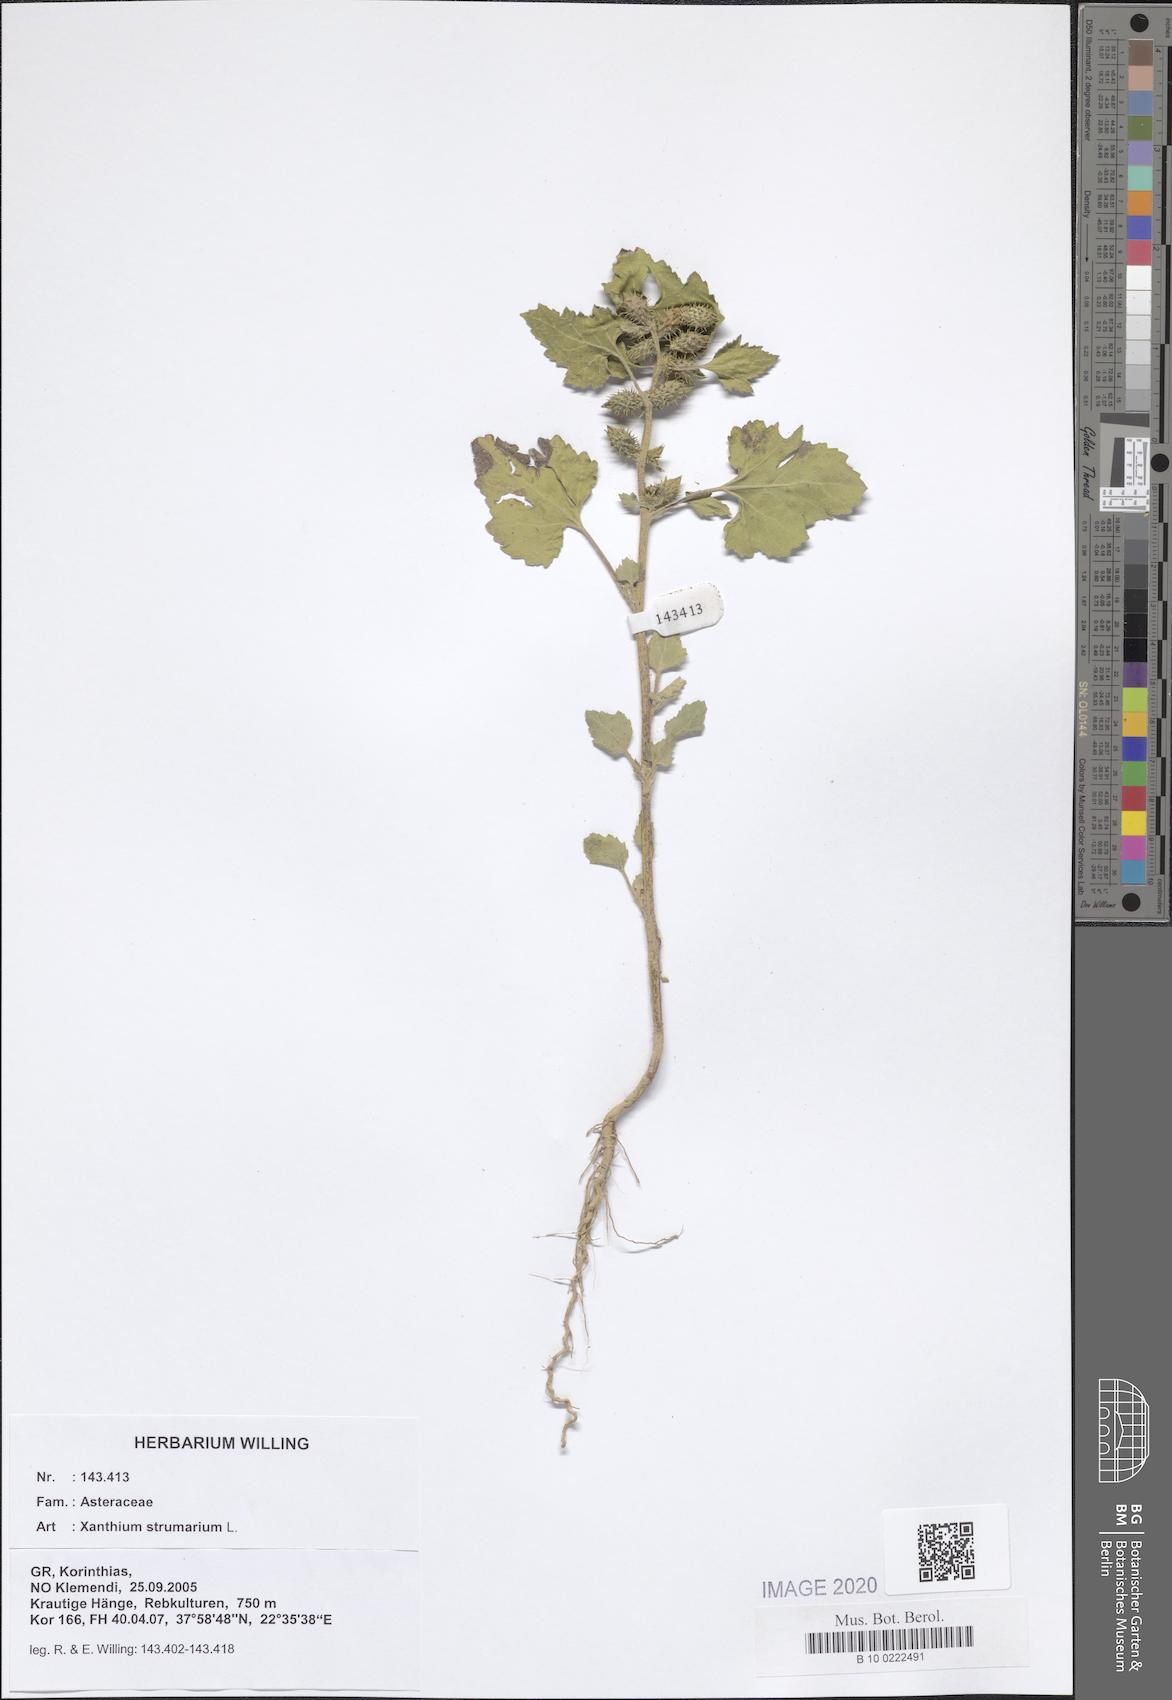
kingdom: Plantae
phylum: Tracheophyta
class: Magnoliopsida
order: Asterales
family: Asteraceae
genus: Xanthium
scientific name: Xanthium strumarium
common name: Rough cocklebur
